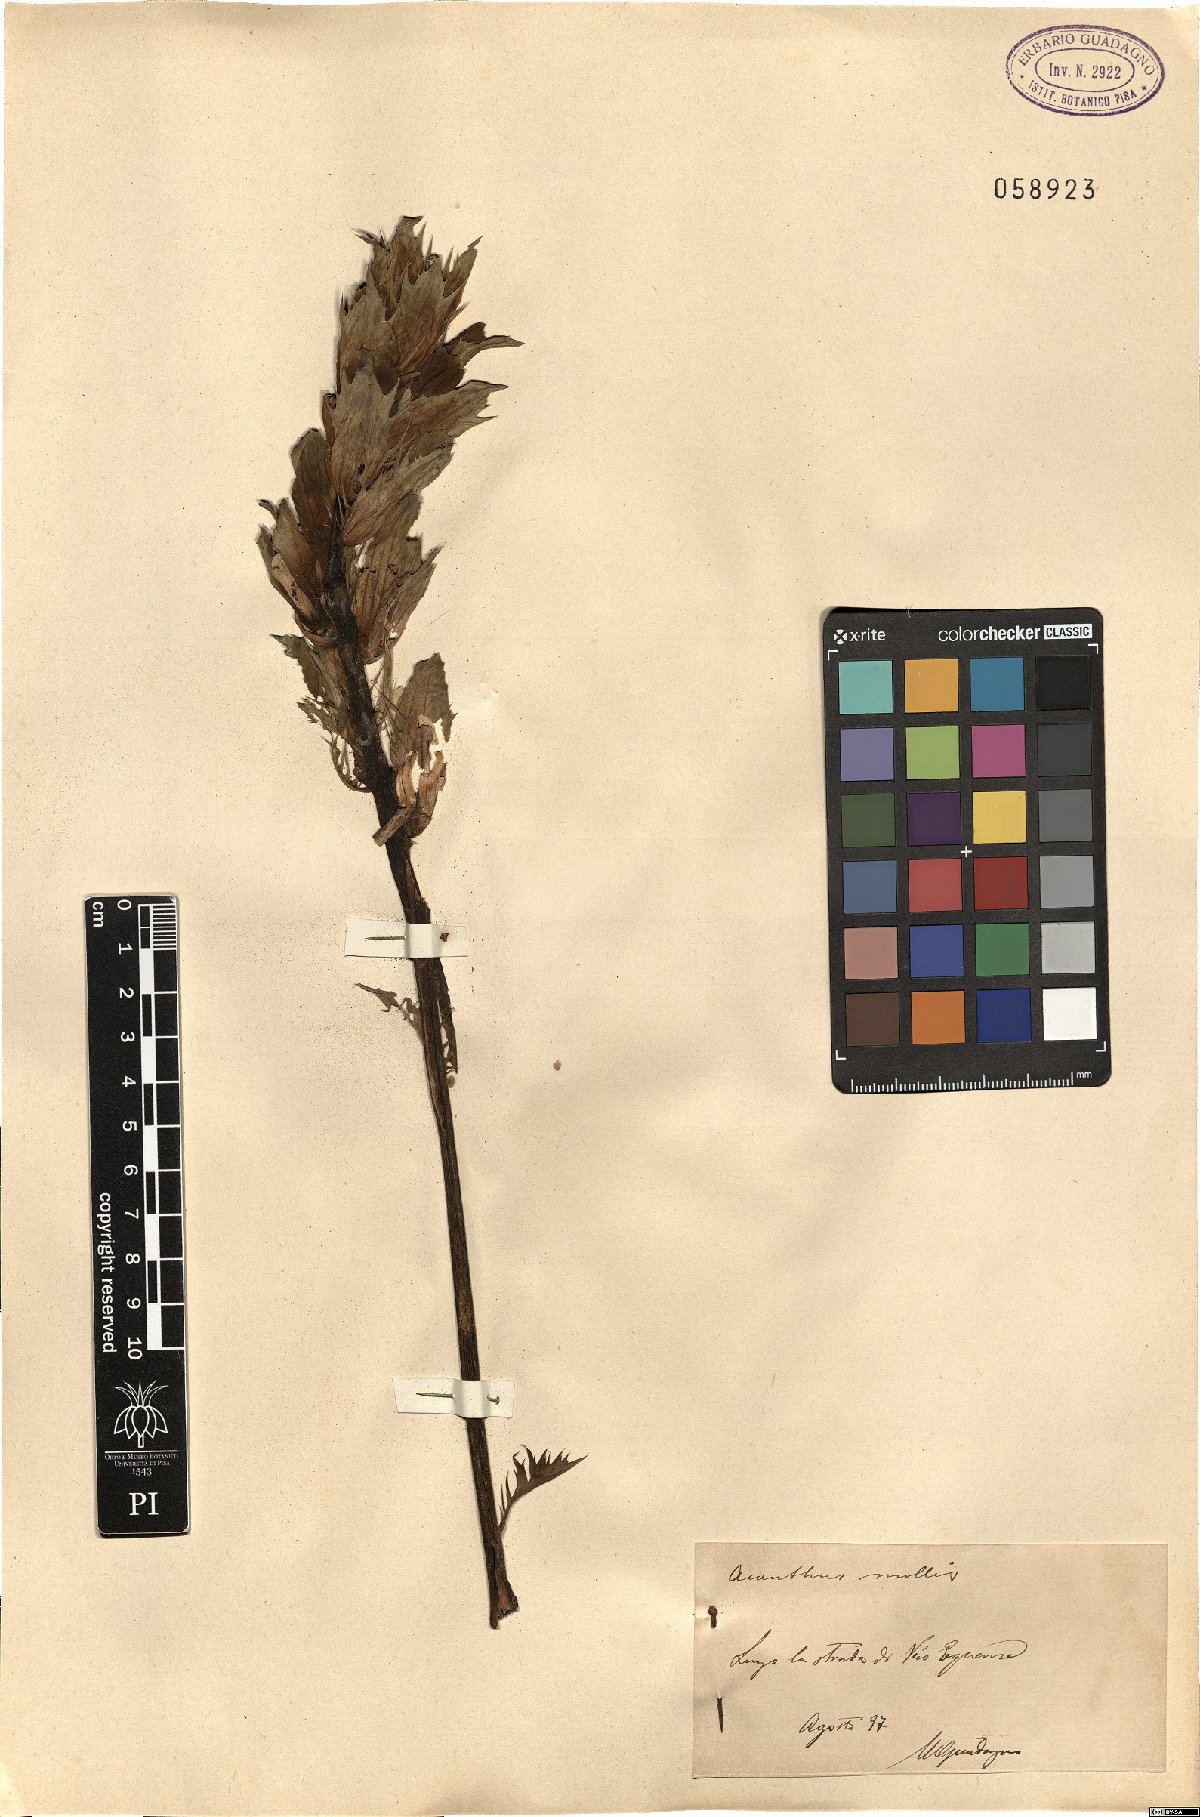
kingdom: Plantae
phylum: Tracheophyta
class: Magnoliopsida
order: Lamiales
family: Acanthaceae
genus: Acanthus
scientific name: Acanthus mollis
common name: Bear's-breech
